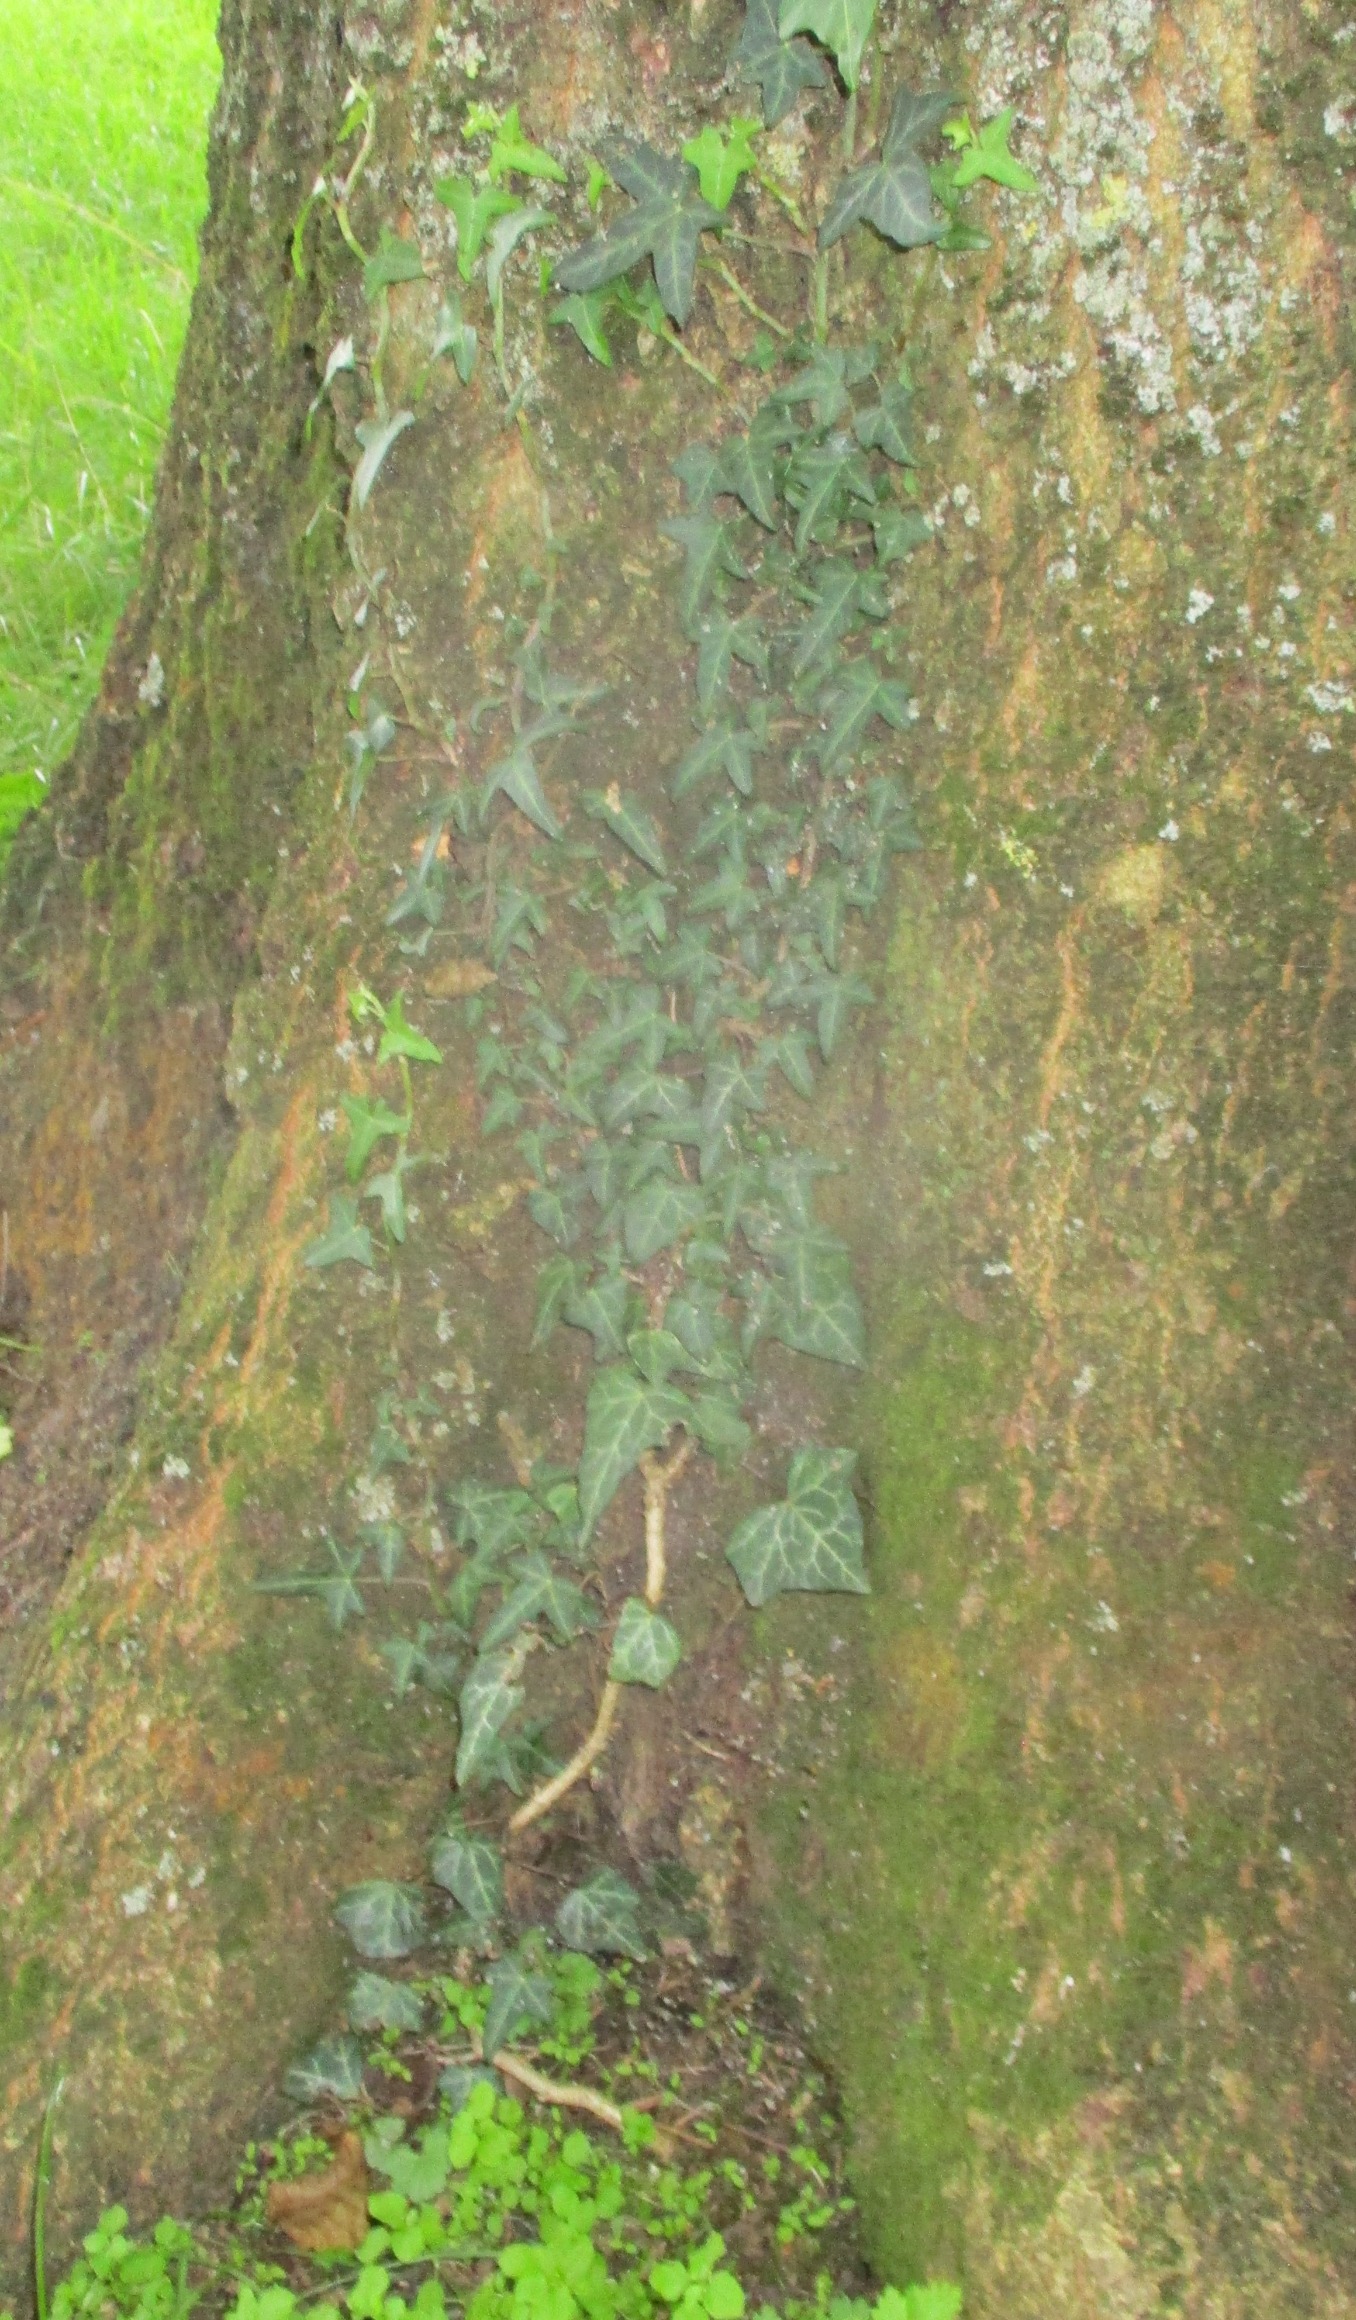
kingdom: Plantae
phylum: Tracheophyta
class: Magnoliopsida
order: Apiales
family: Araliaceae
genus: Hedera
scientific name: Hedera helix
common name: Vedbend
